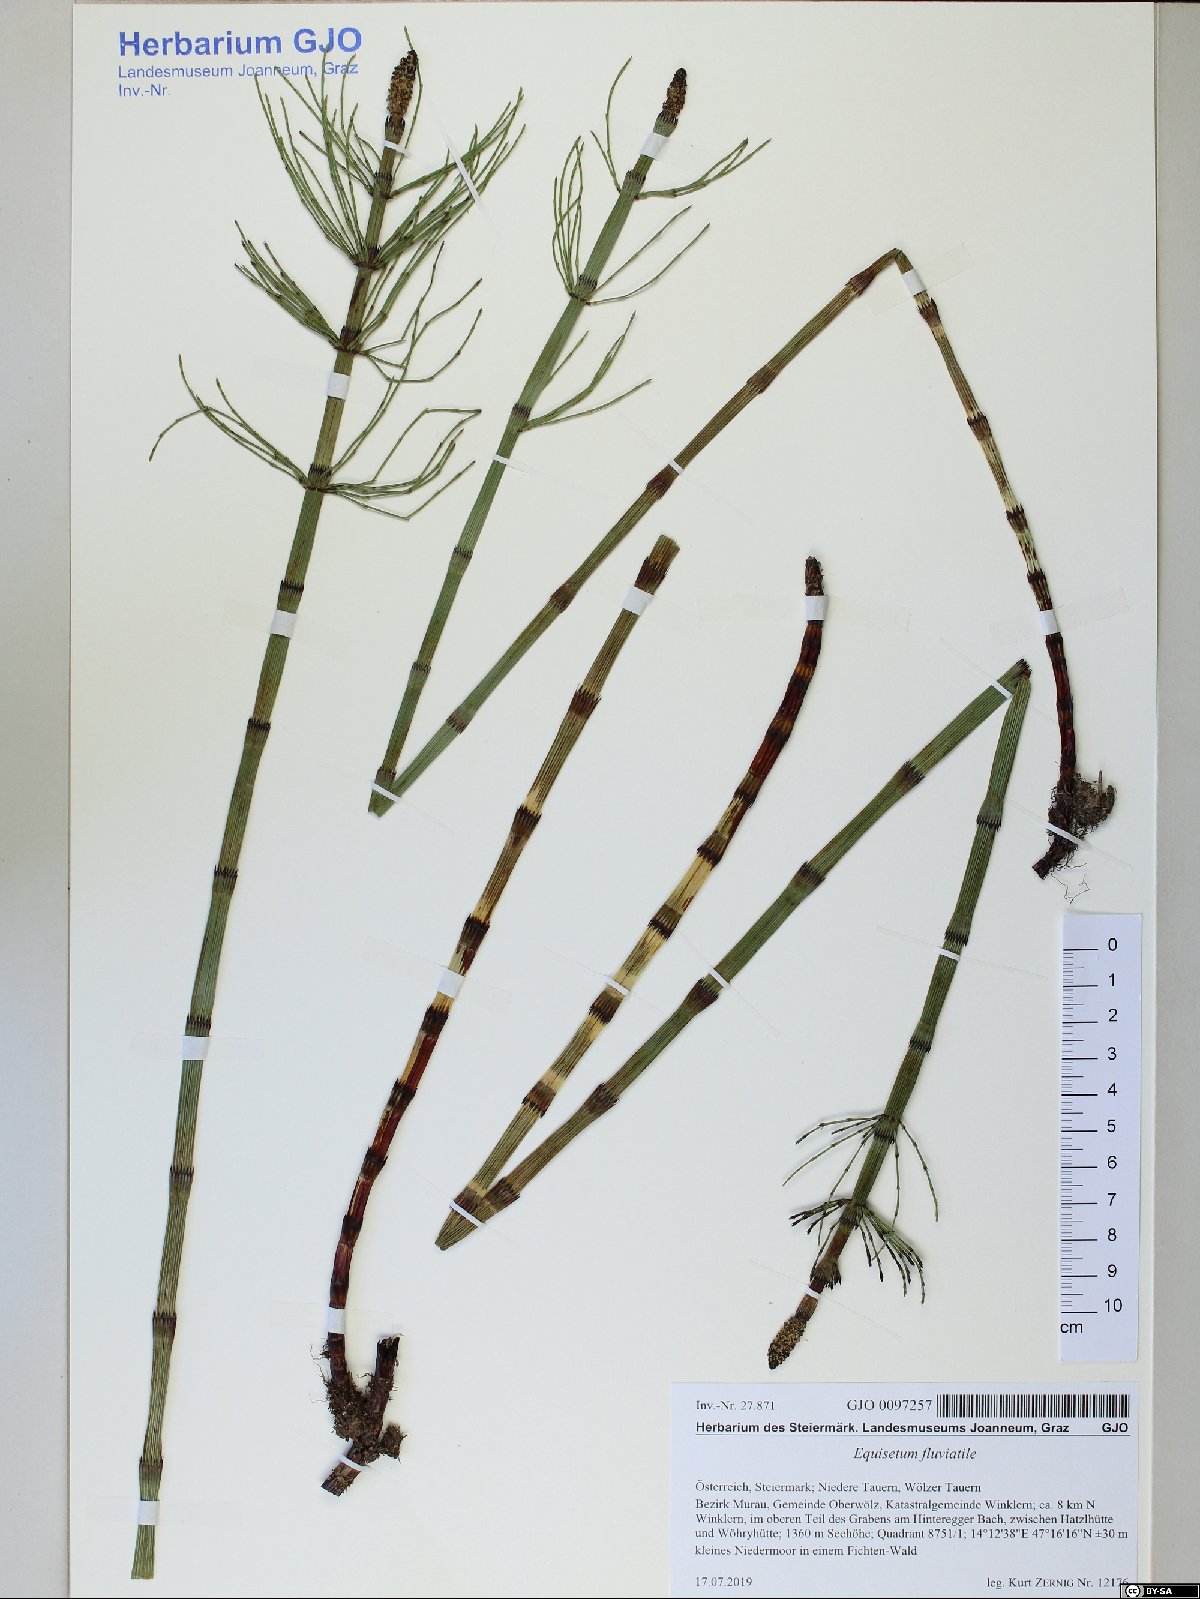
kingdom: Plantae
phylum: Tracheophyta
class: Polypodiopsida
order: Equisetales
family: Equisetaceae
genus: Equisetum
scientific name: Equisetum fluviatile
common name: Water horsetail
